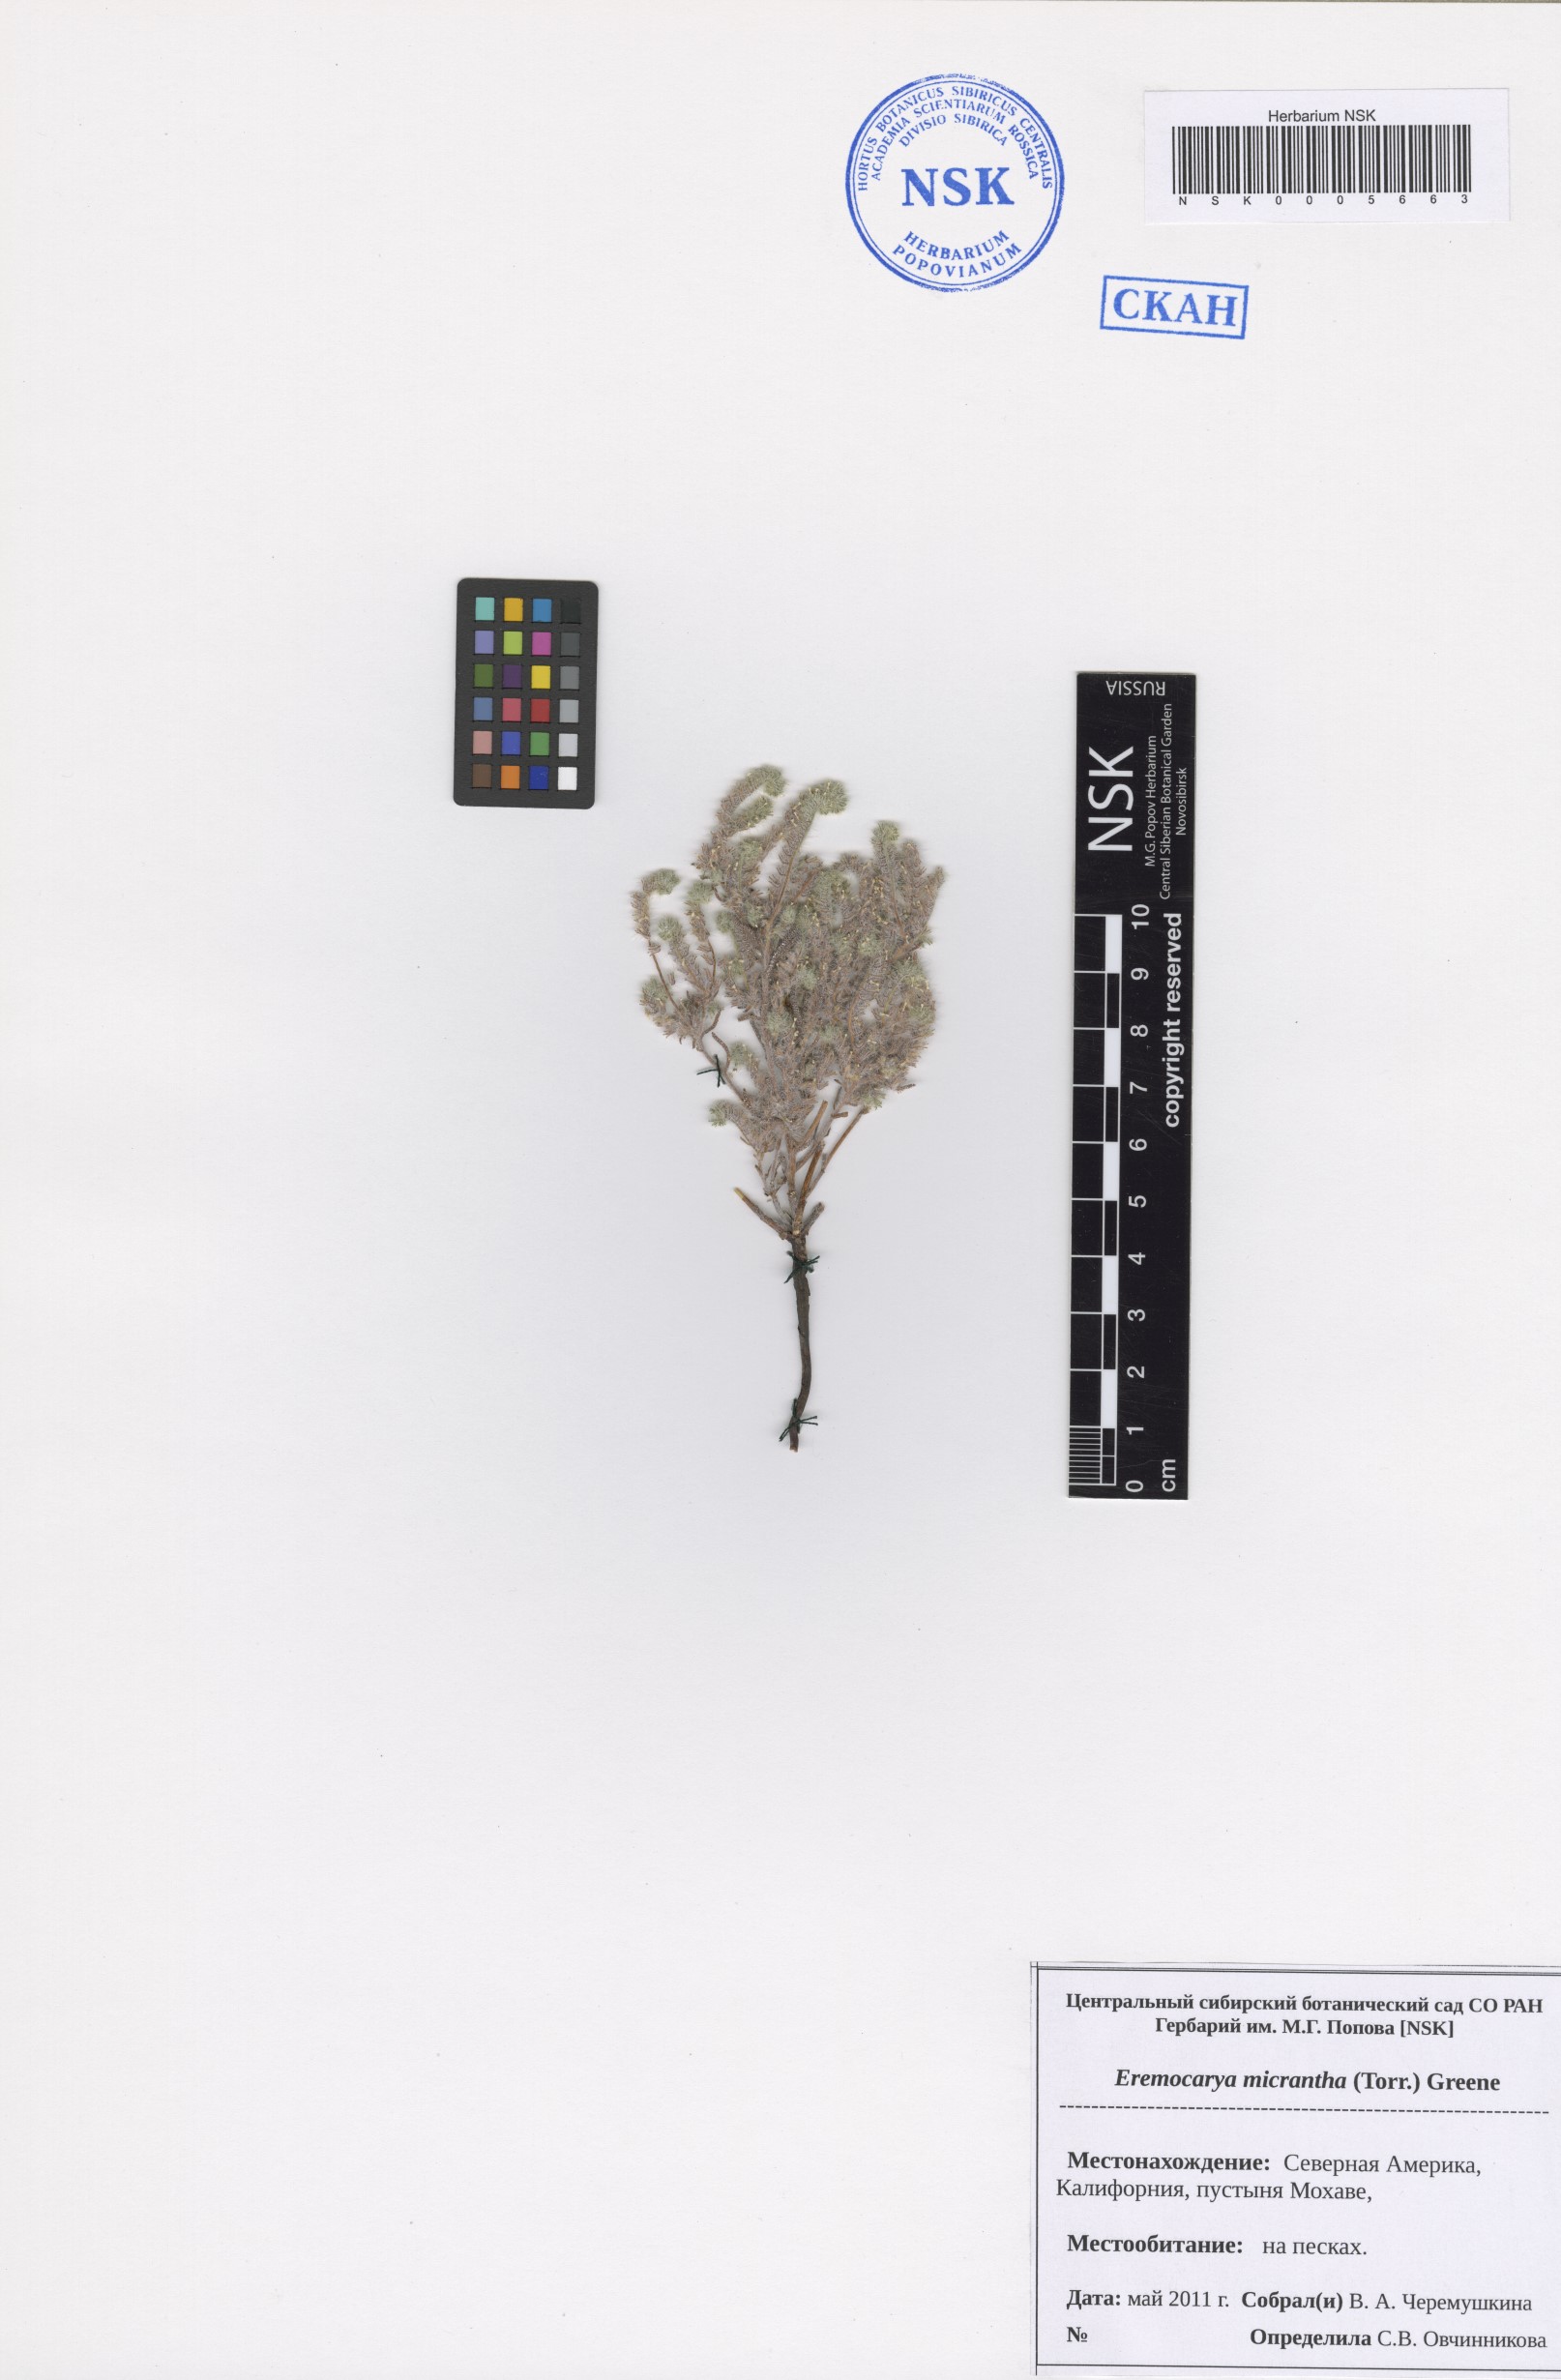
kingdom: Plantae
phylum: Tracheophyta
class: Magnoliopsida
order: Boraginales
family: Boraginaceae
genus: Eremocarya
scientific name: Eremocarya micrantha
